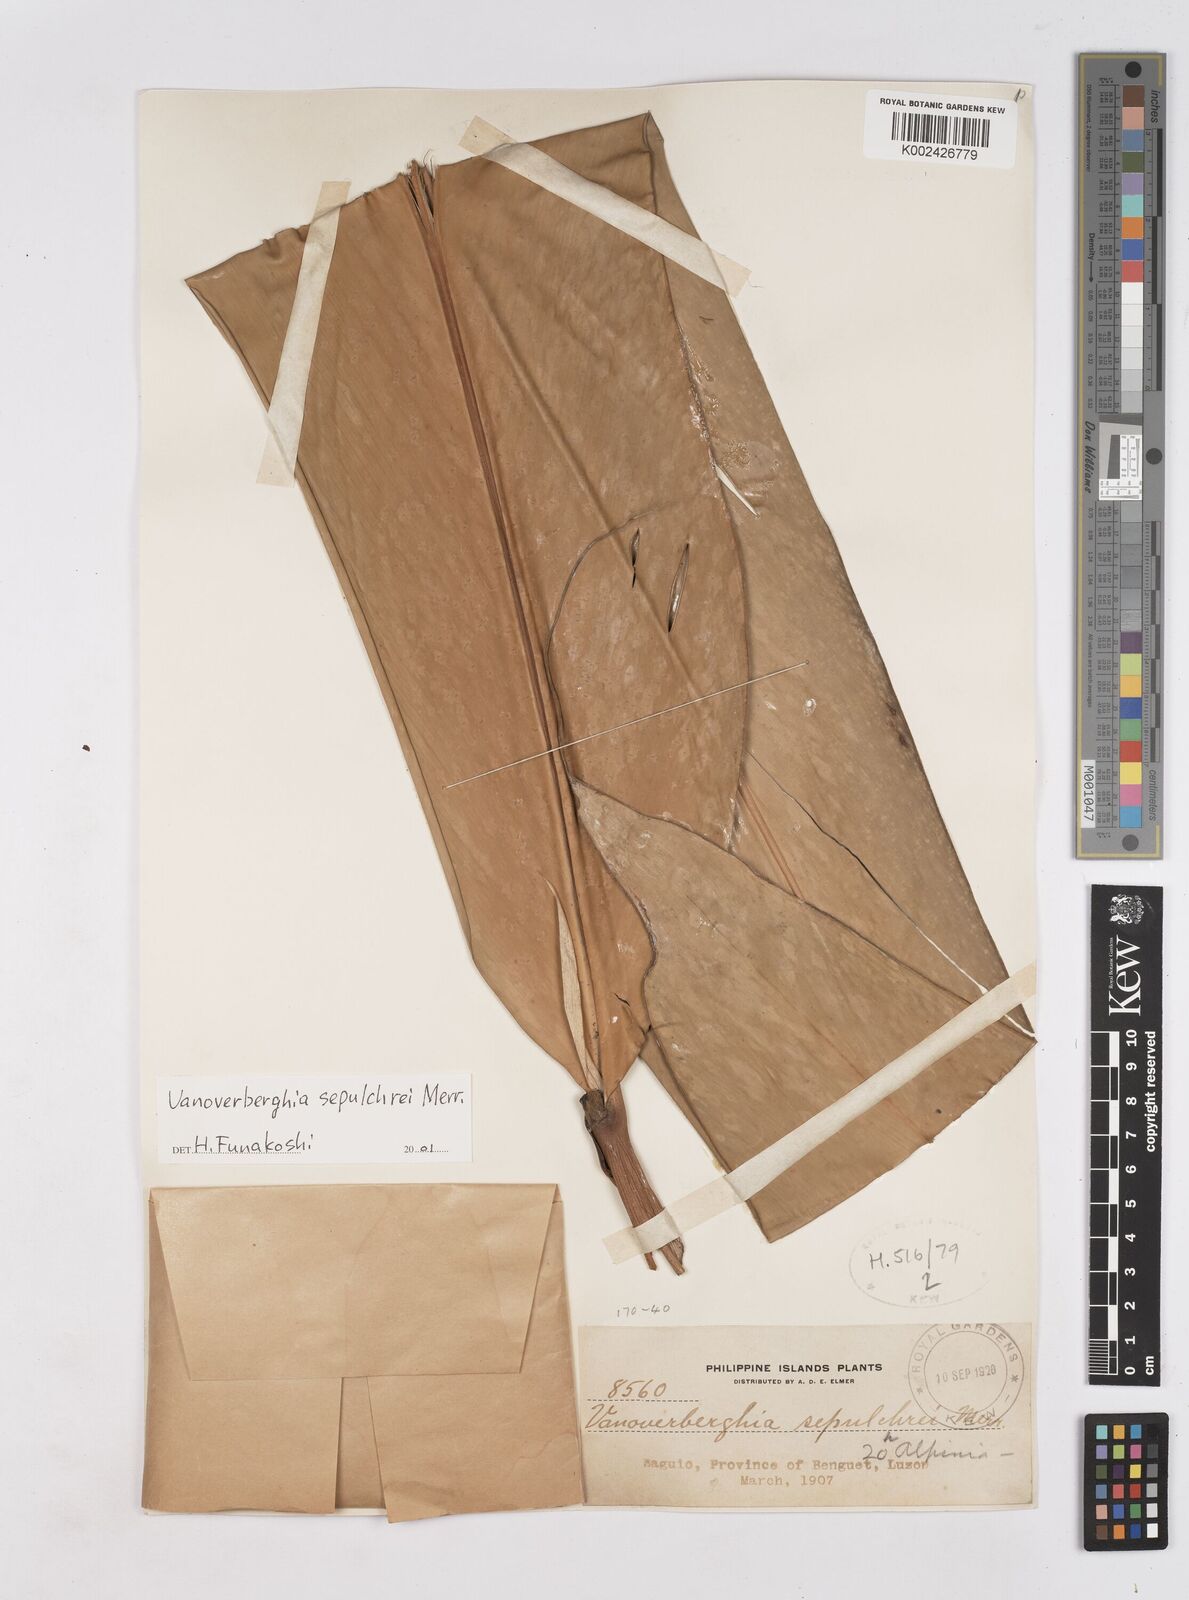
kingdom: Plantae
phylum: Tracheophyta
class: Liliopsida
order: Zingiberales
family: Zingiberaceae
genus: Vanoverberghia
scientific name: Vanoverberghia sepulchrei
